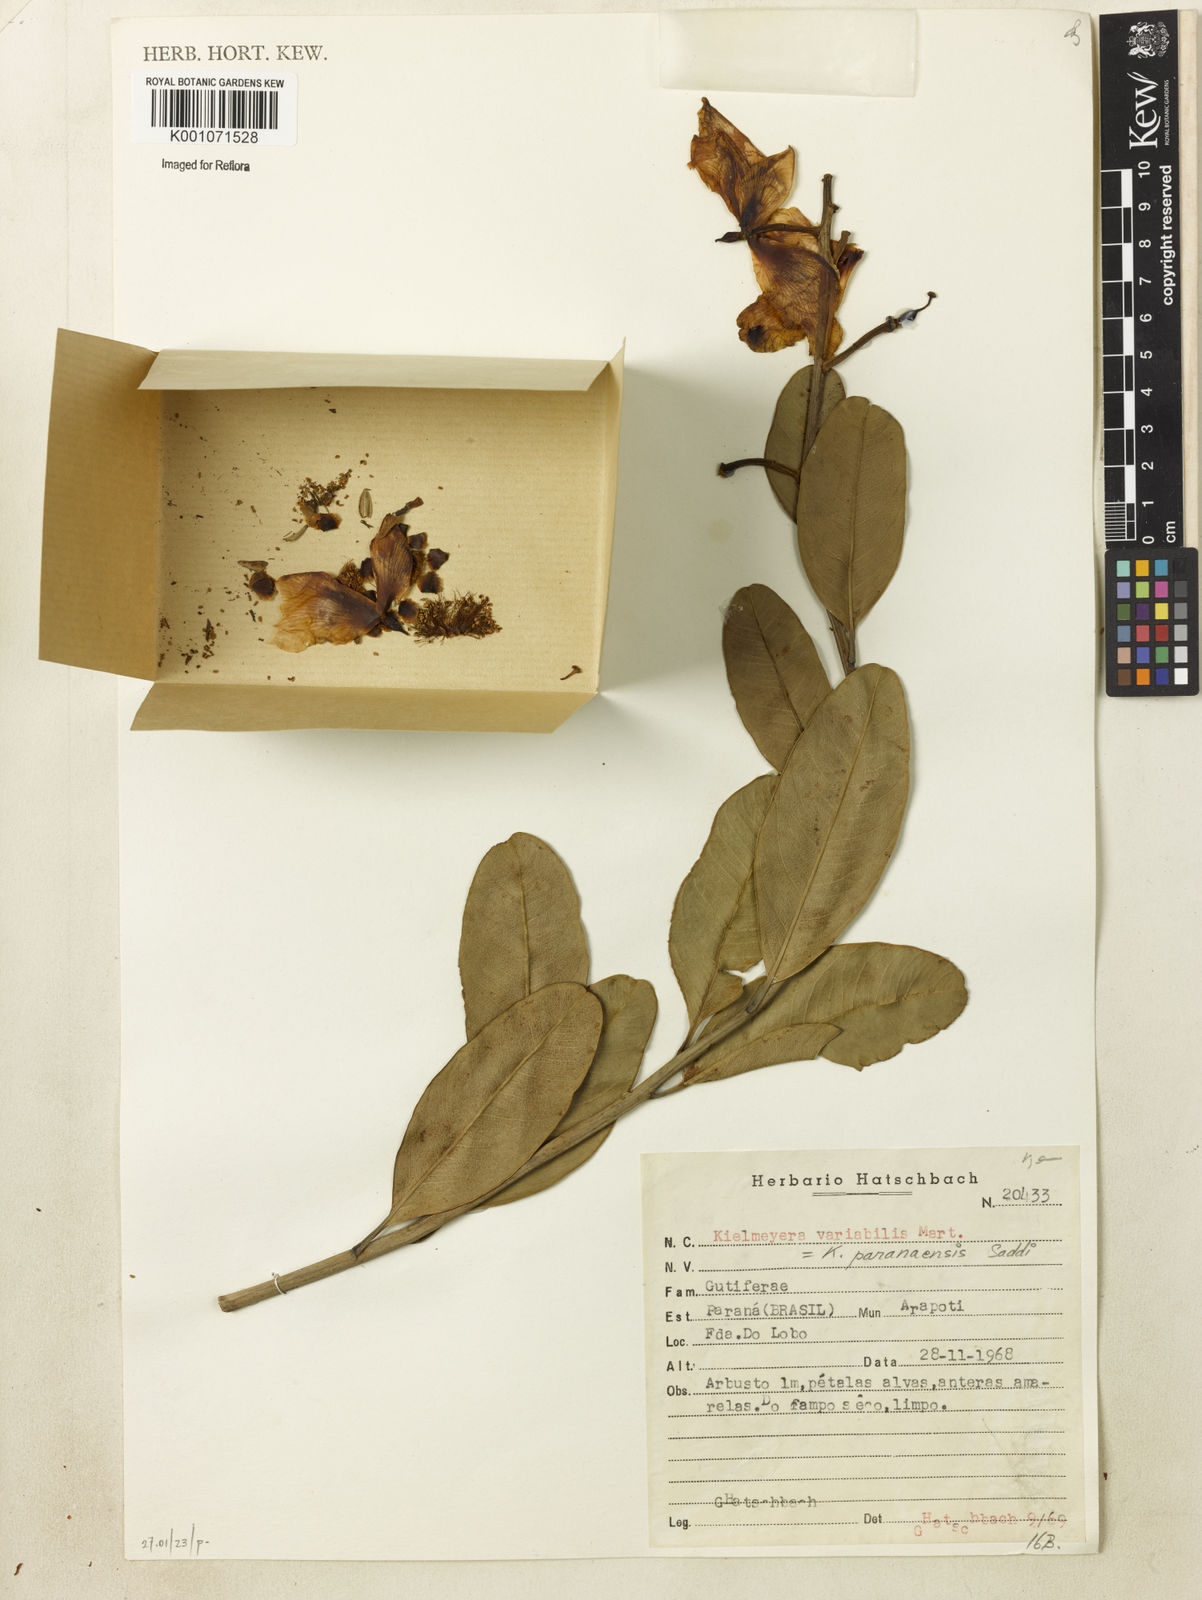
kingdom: Plantae
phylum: Tracheophyta
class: Magnoliopsida
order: Malpighiales
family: Calophyllaceae
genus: Kielmeyera
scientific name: Kielmeyera variabilis
